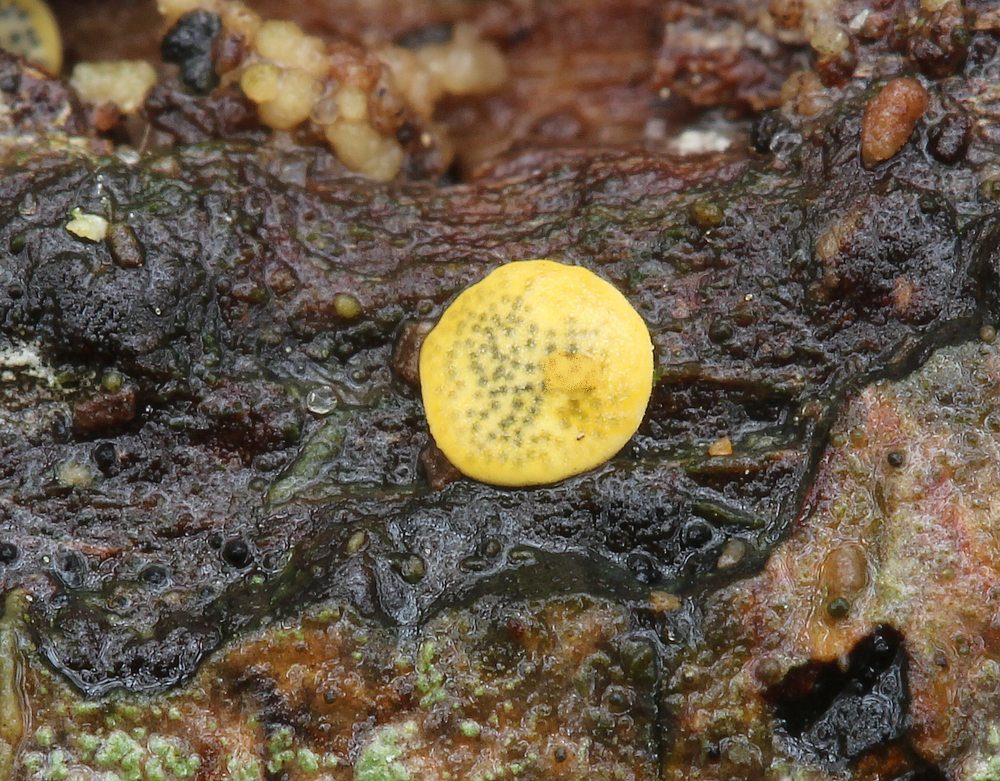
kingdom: Fungi
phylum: Ascomycota
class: Sordariomycetes
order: Hypocreales
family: Hypocreaceae
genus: Trichoderma
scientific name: Trichoderma aureoviride
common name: æggegul kødkerne
